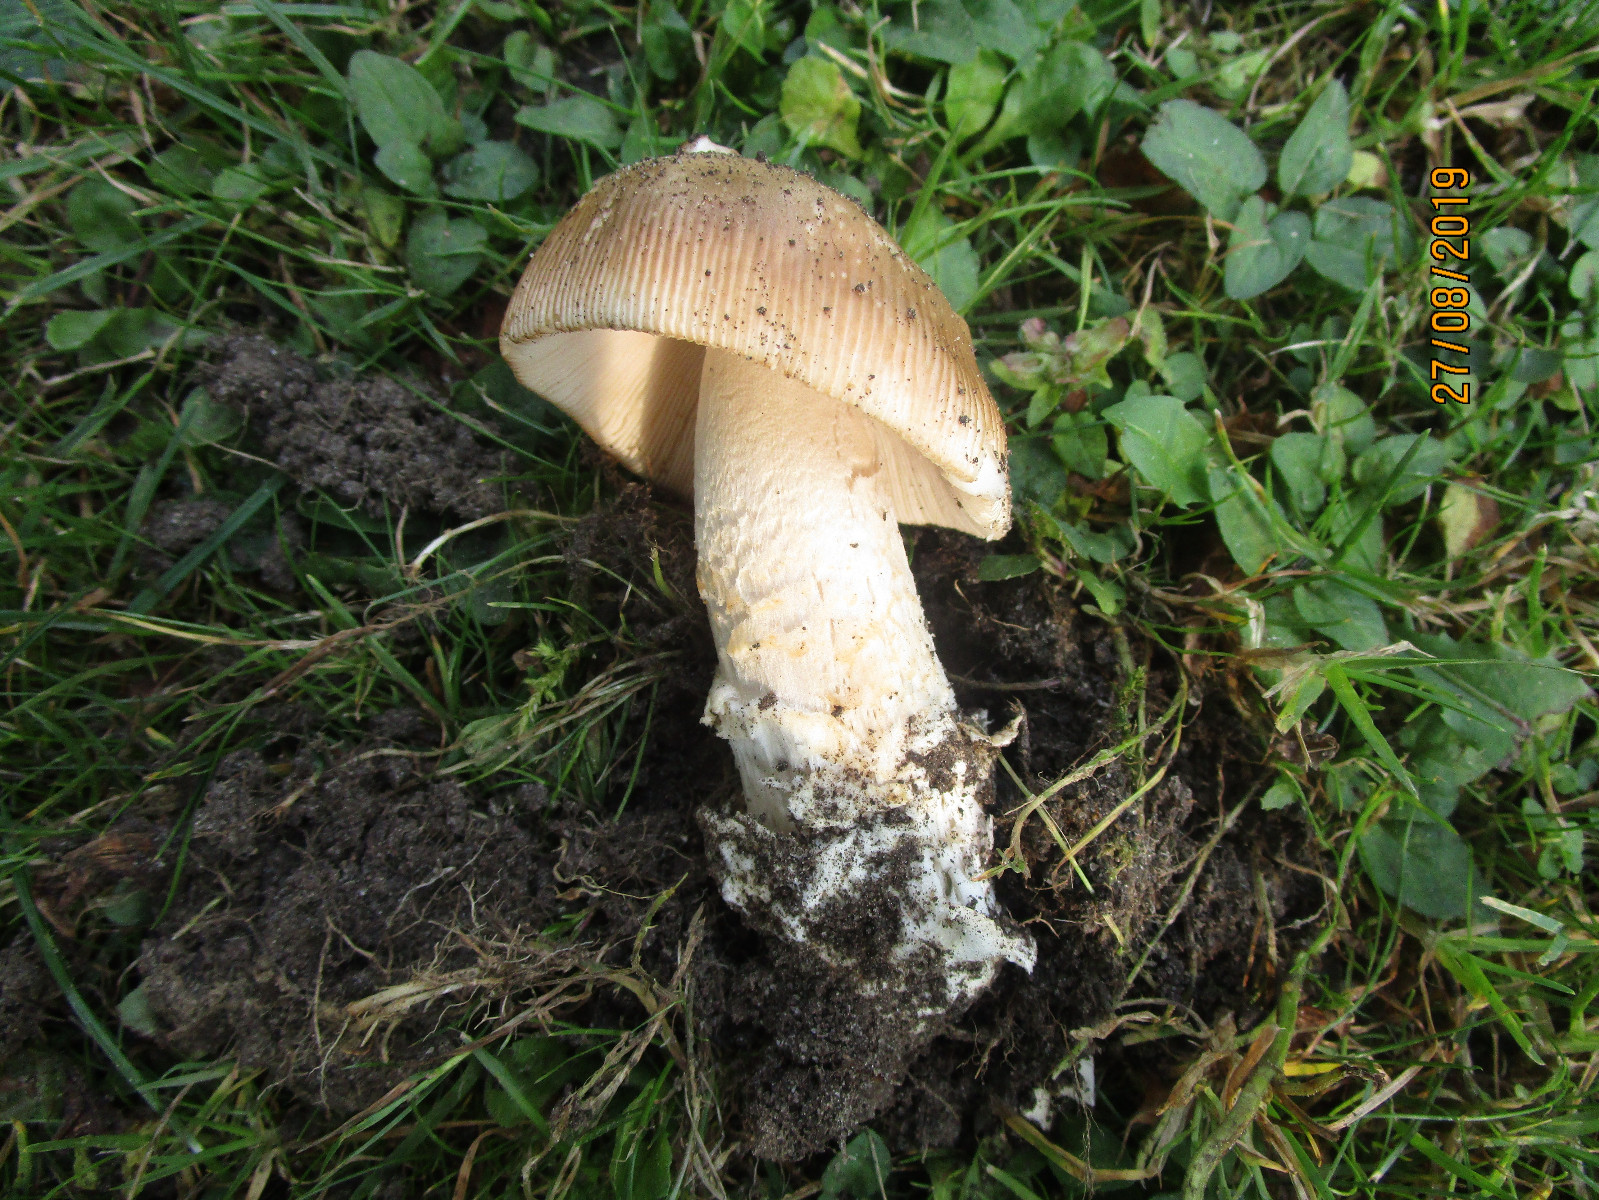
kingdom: Fungi
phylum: Basidiomycota
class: Agaricomycetes
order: Agaricales
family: Amanitaceae
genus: Amanita
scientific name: Amanita lividopallescens
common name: afblegende kam-fluesvamp
